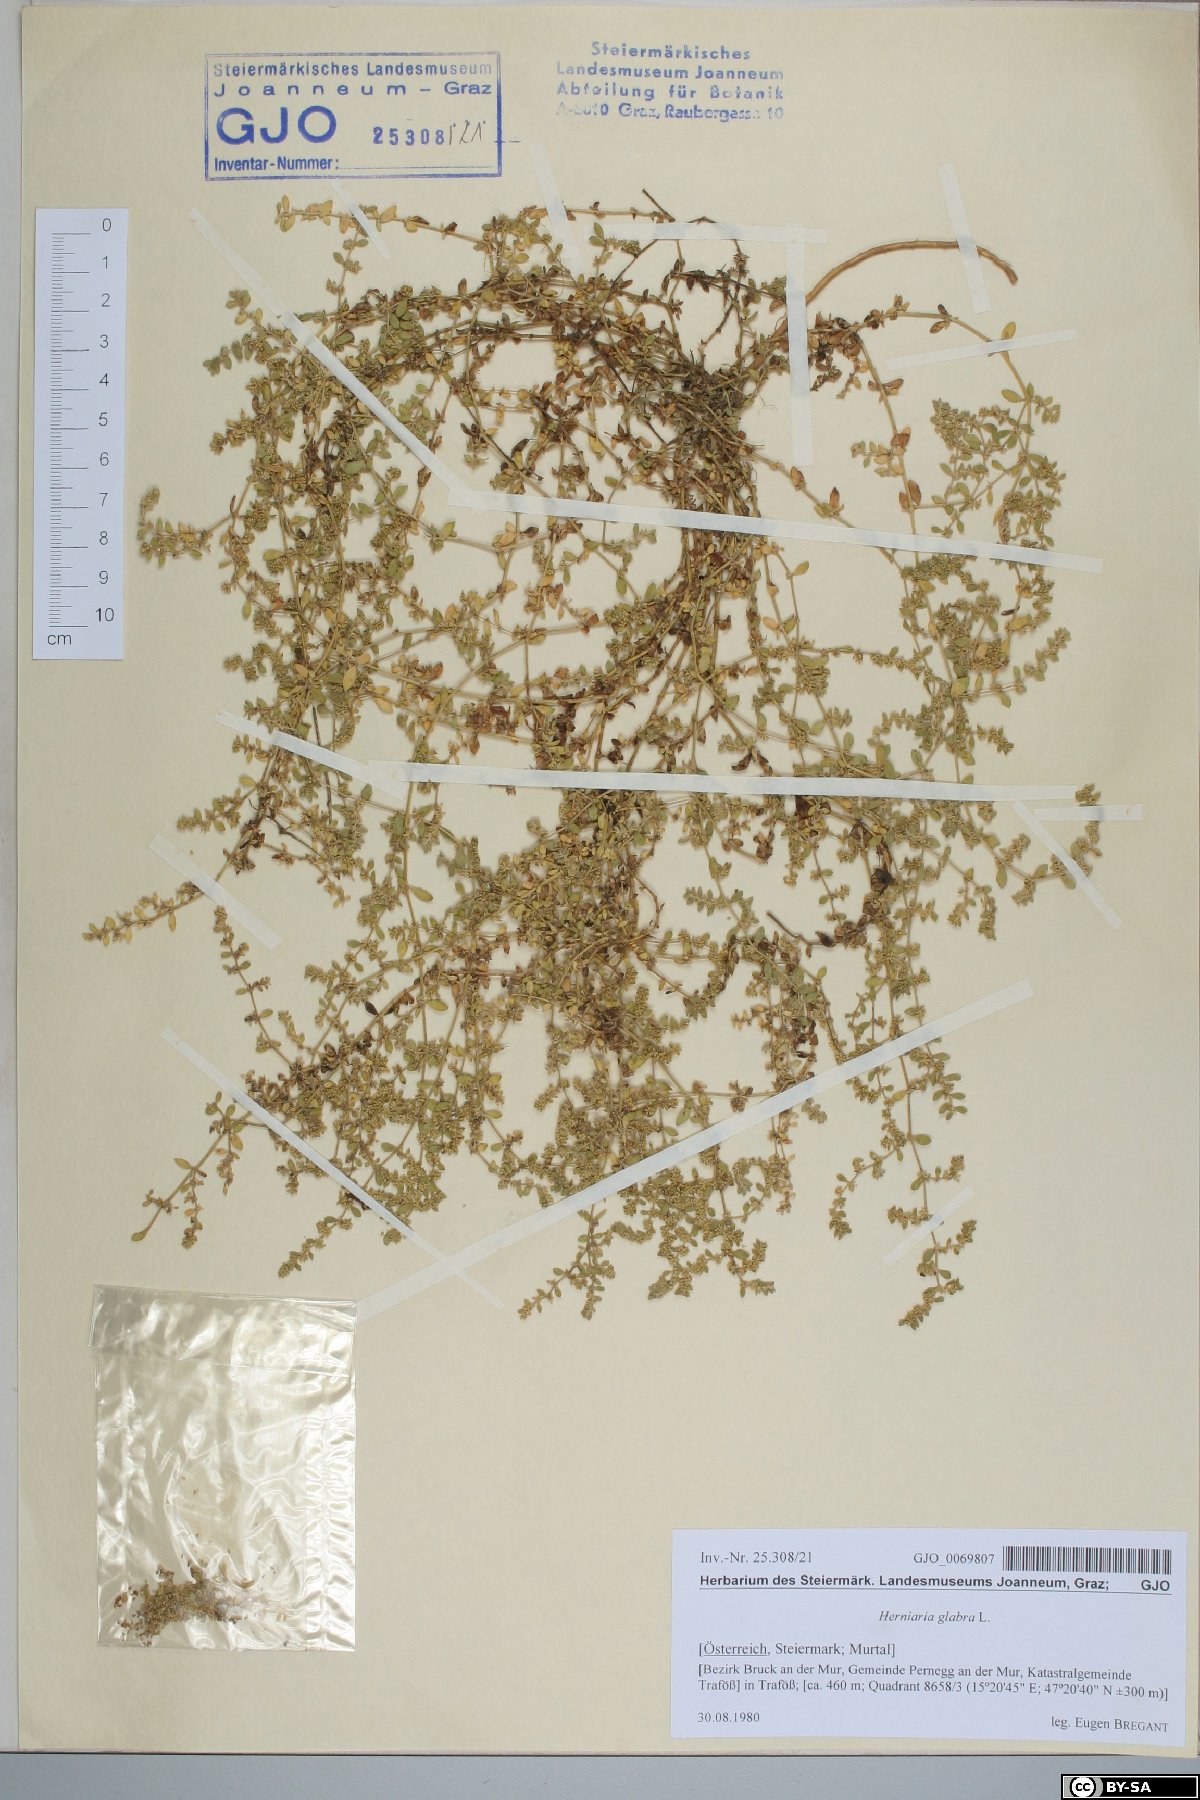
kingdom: Plantae
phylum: Tracheophyta
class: Magnoliopsida
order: Caryophyllales
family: Caryophyllaceae
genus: Herniaria
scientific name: Herniaria glabra
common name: Smooth rupturewort
